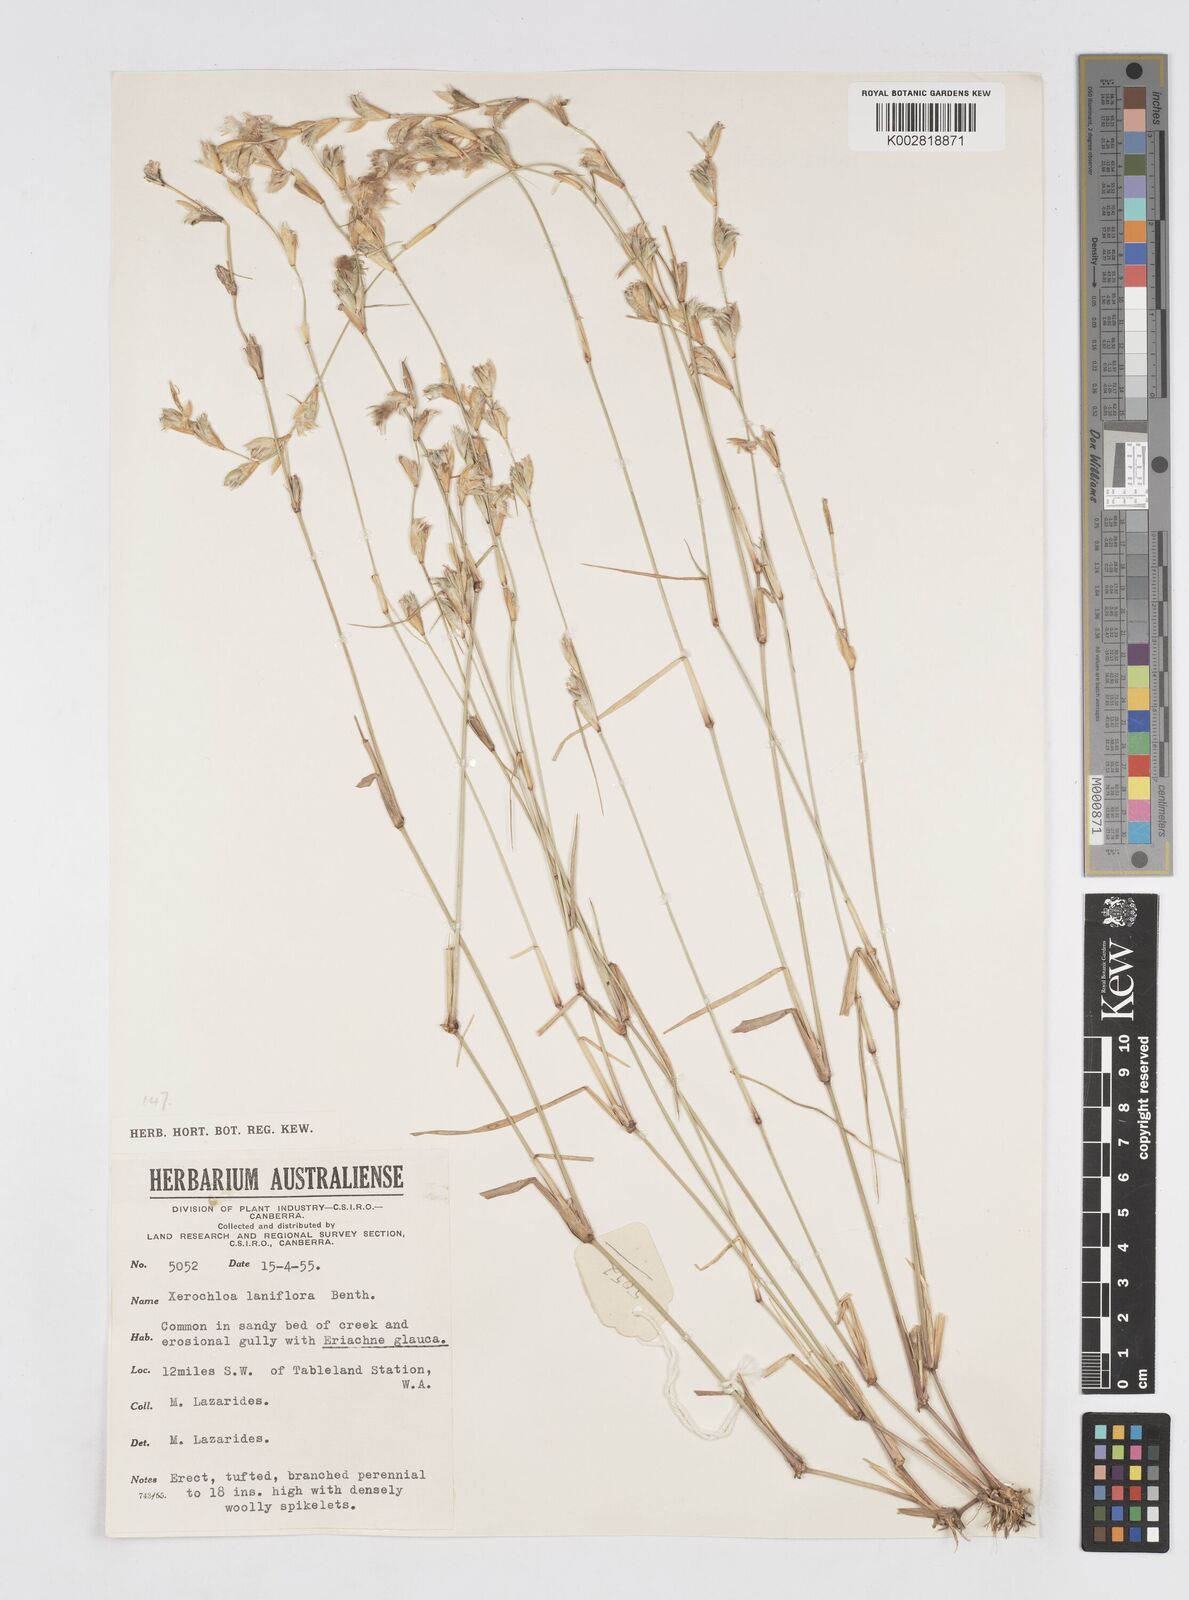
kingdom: Plantae
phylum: Tracheophyta
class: Liliopsida
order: Poales
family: Poaceae
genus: Xerochloa
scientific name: Xerochloa laniflora
